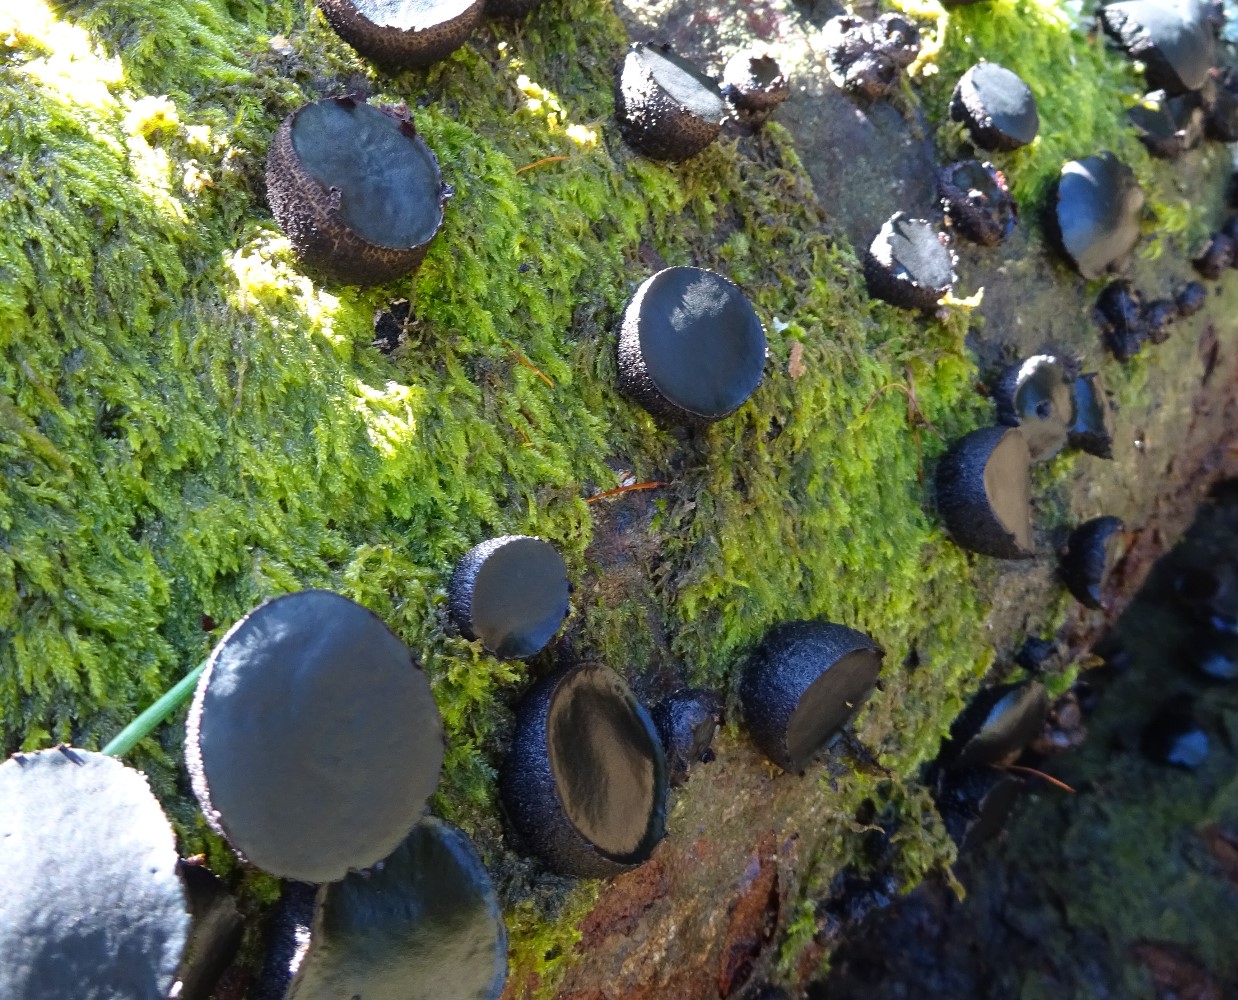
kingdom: Fungi
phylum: Ascomycota
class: Leotiomycetes
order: Phacidiales
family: Phacidiaceae
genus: Bulgaria
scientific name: Bulgaria inquinans
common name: afsmittende topsvamp
